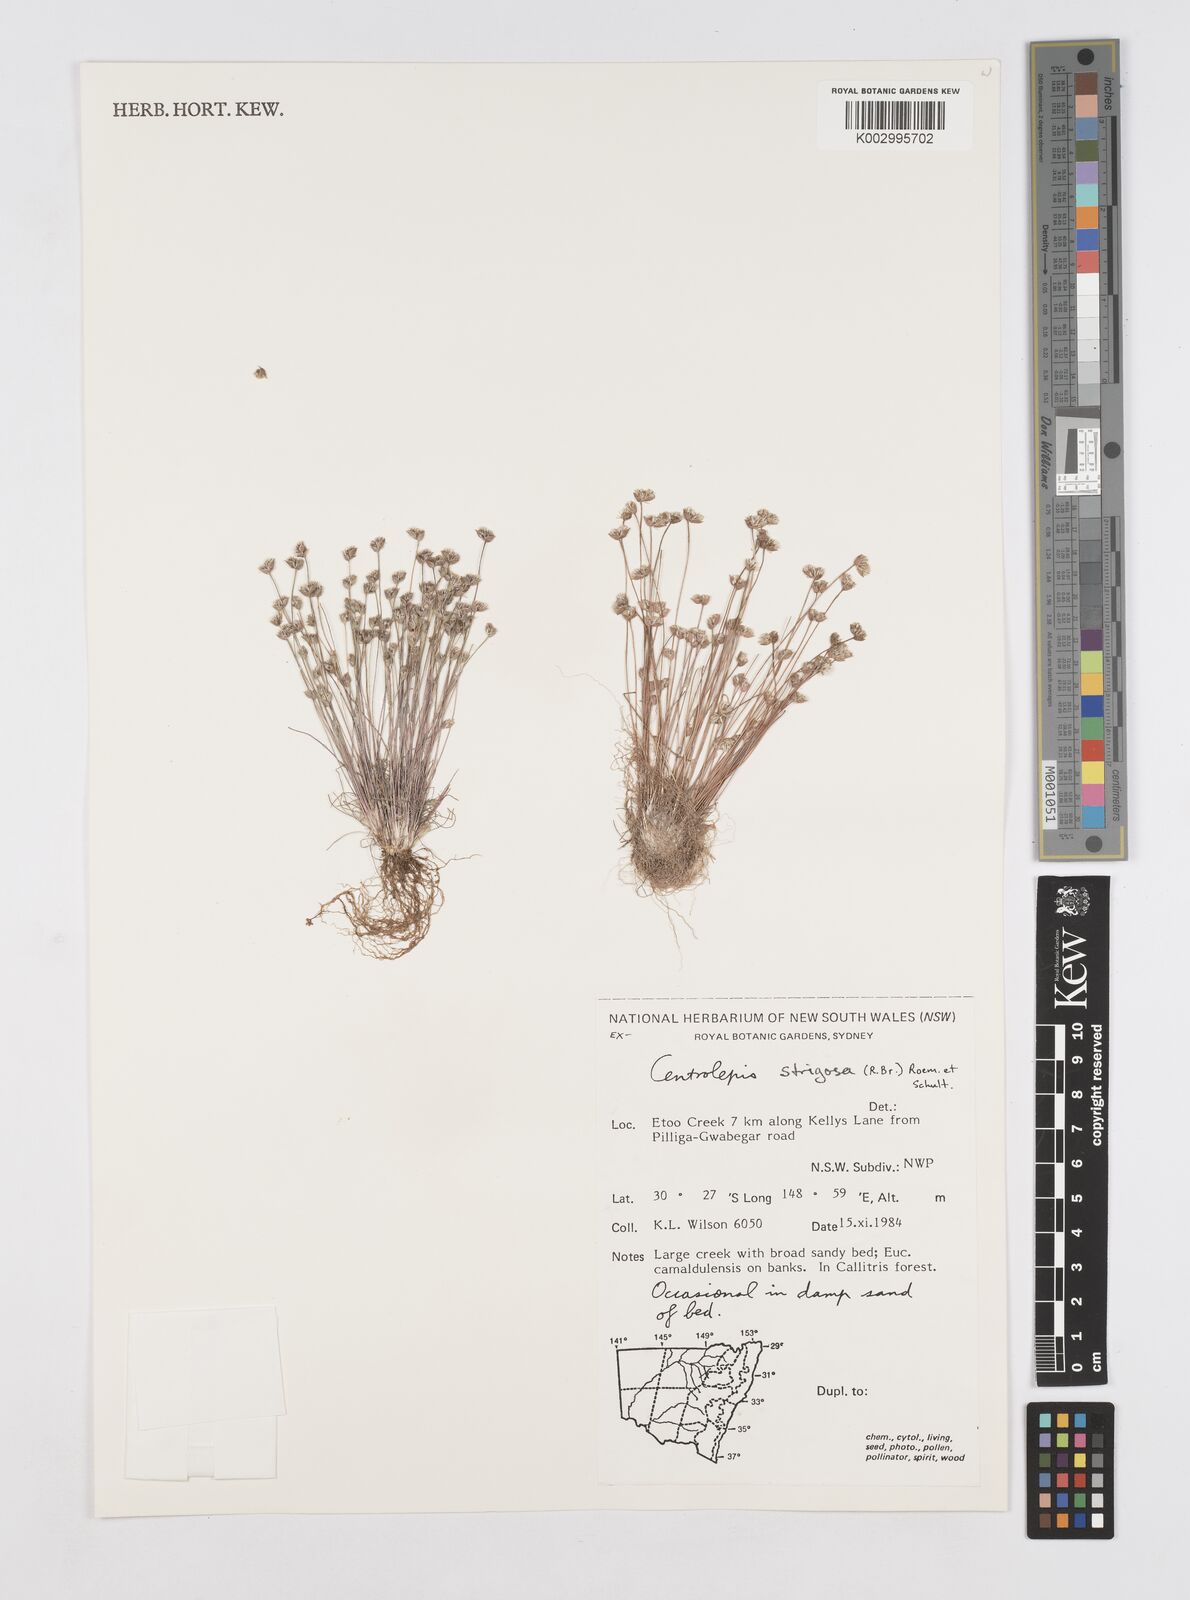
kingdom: Plantae
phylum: Tracheophyta
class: Liliopsida
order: Poales
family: Restionaceae
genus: Centrolepis
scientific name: Centrolepis strigosa
